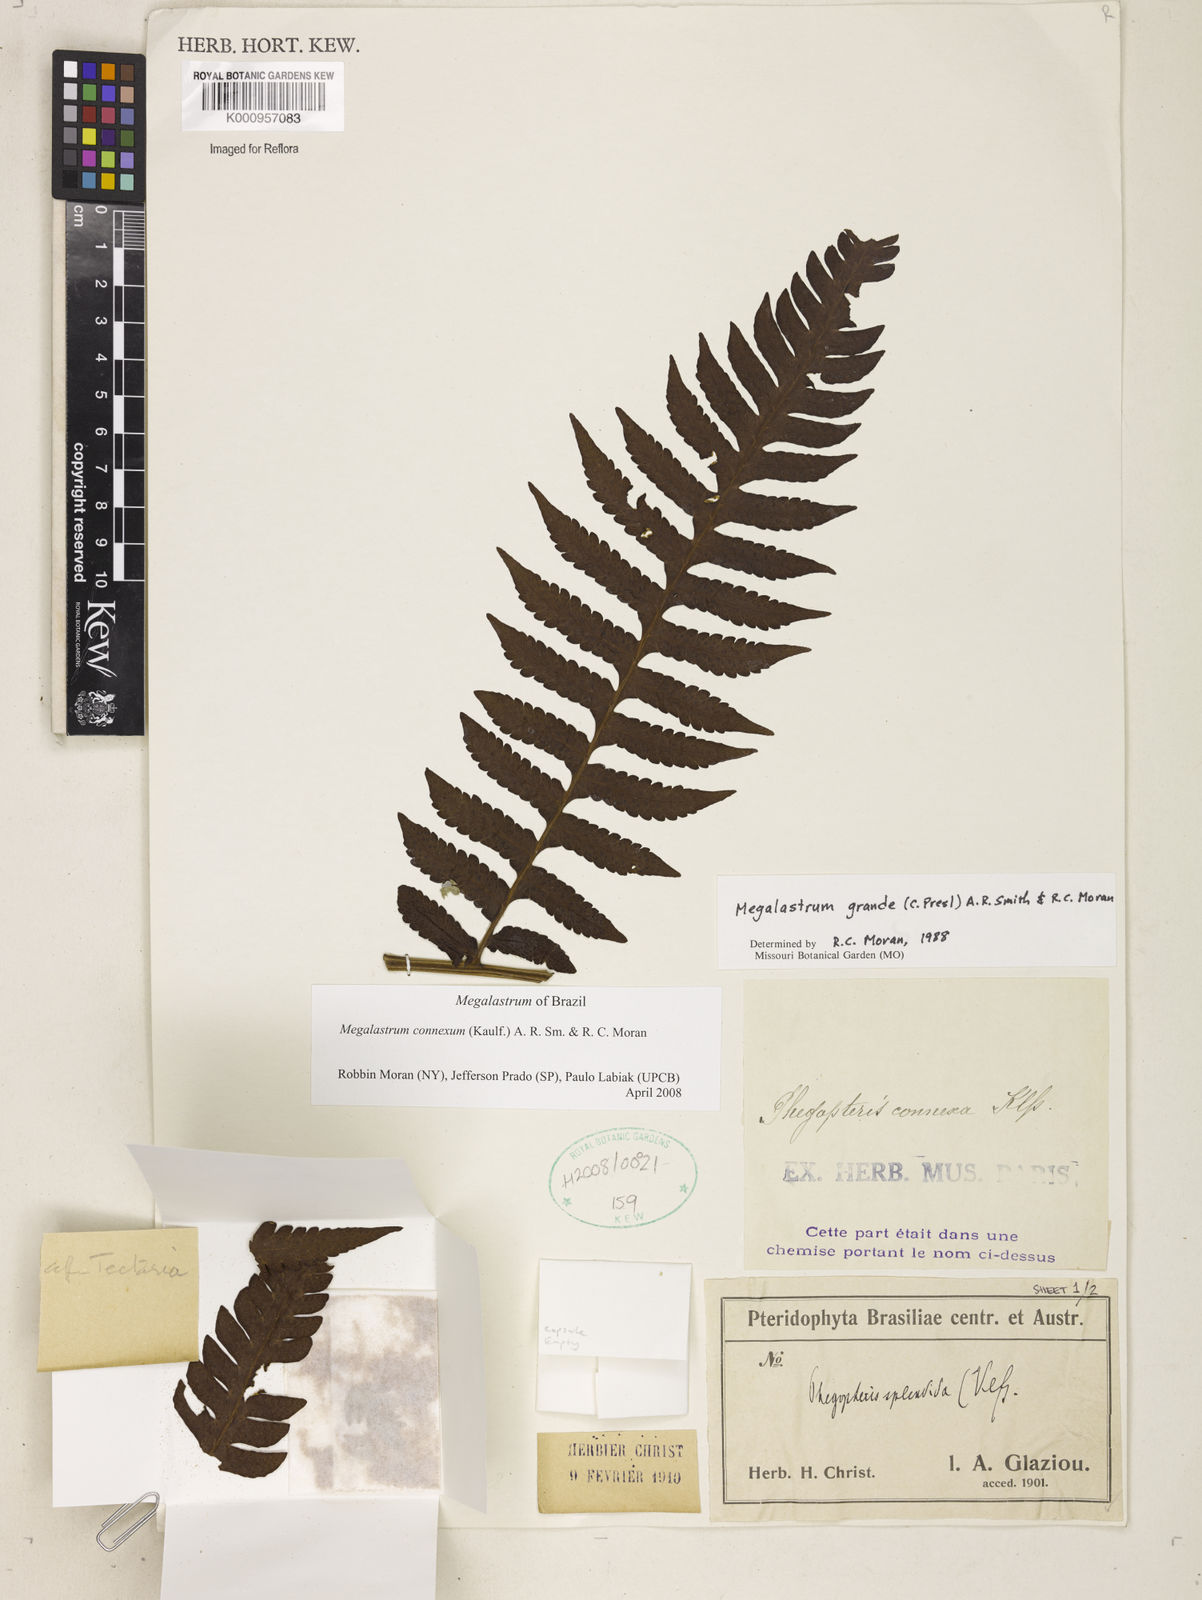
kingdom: Plantae
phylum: Tracheophyta
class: Polypodiopsida
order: Polypodiales
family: Dryopteridaceae
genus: Megalastrum
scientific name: Megalastrum connexum
